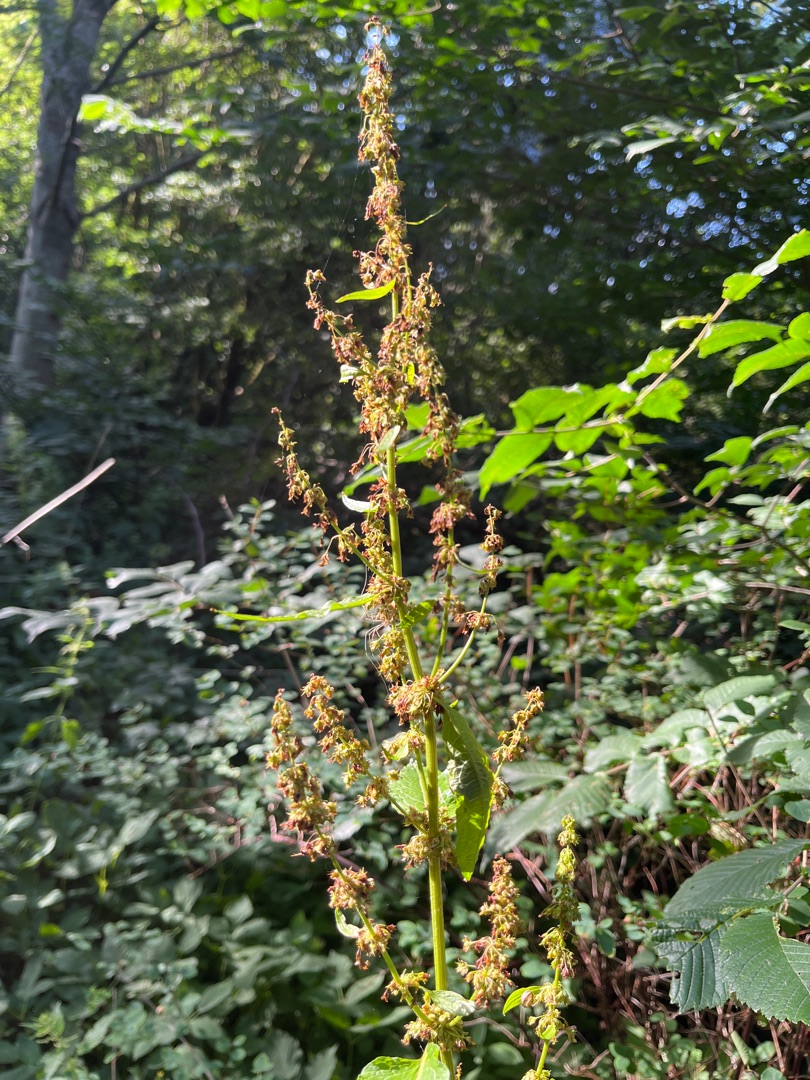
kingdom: Plantae
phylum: Tracheophyta
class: Magnoliopsida
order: Caryophyllales
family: Polygonaceae
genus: Rumex
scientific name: Rumex obtusifolius
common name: Butbladet skræppe
